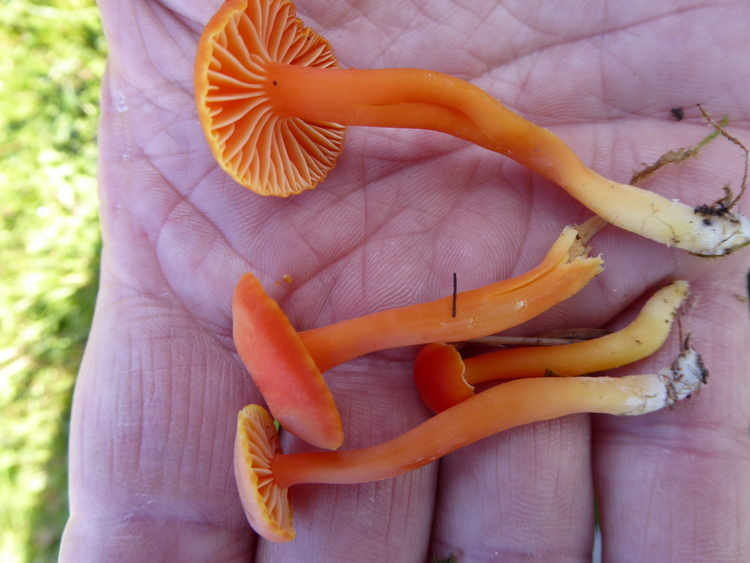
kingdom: Fungi
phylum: Basidiomycota
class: Agaricomycetes
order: Agaricales
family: Hygrophoraceae
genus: Hygrocybe
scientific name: Hygrocybe miniata
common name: mønje-vokshat
